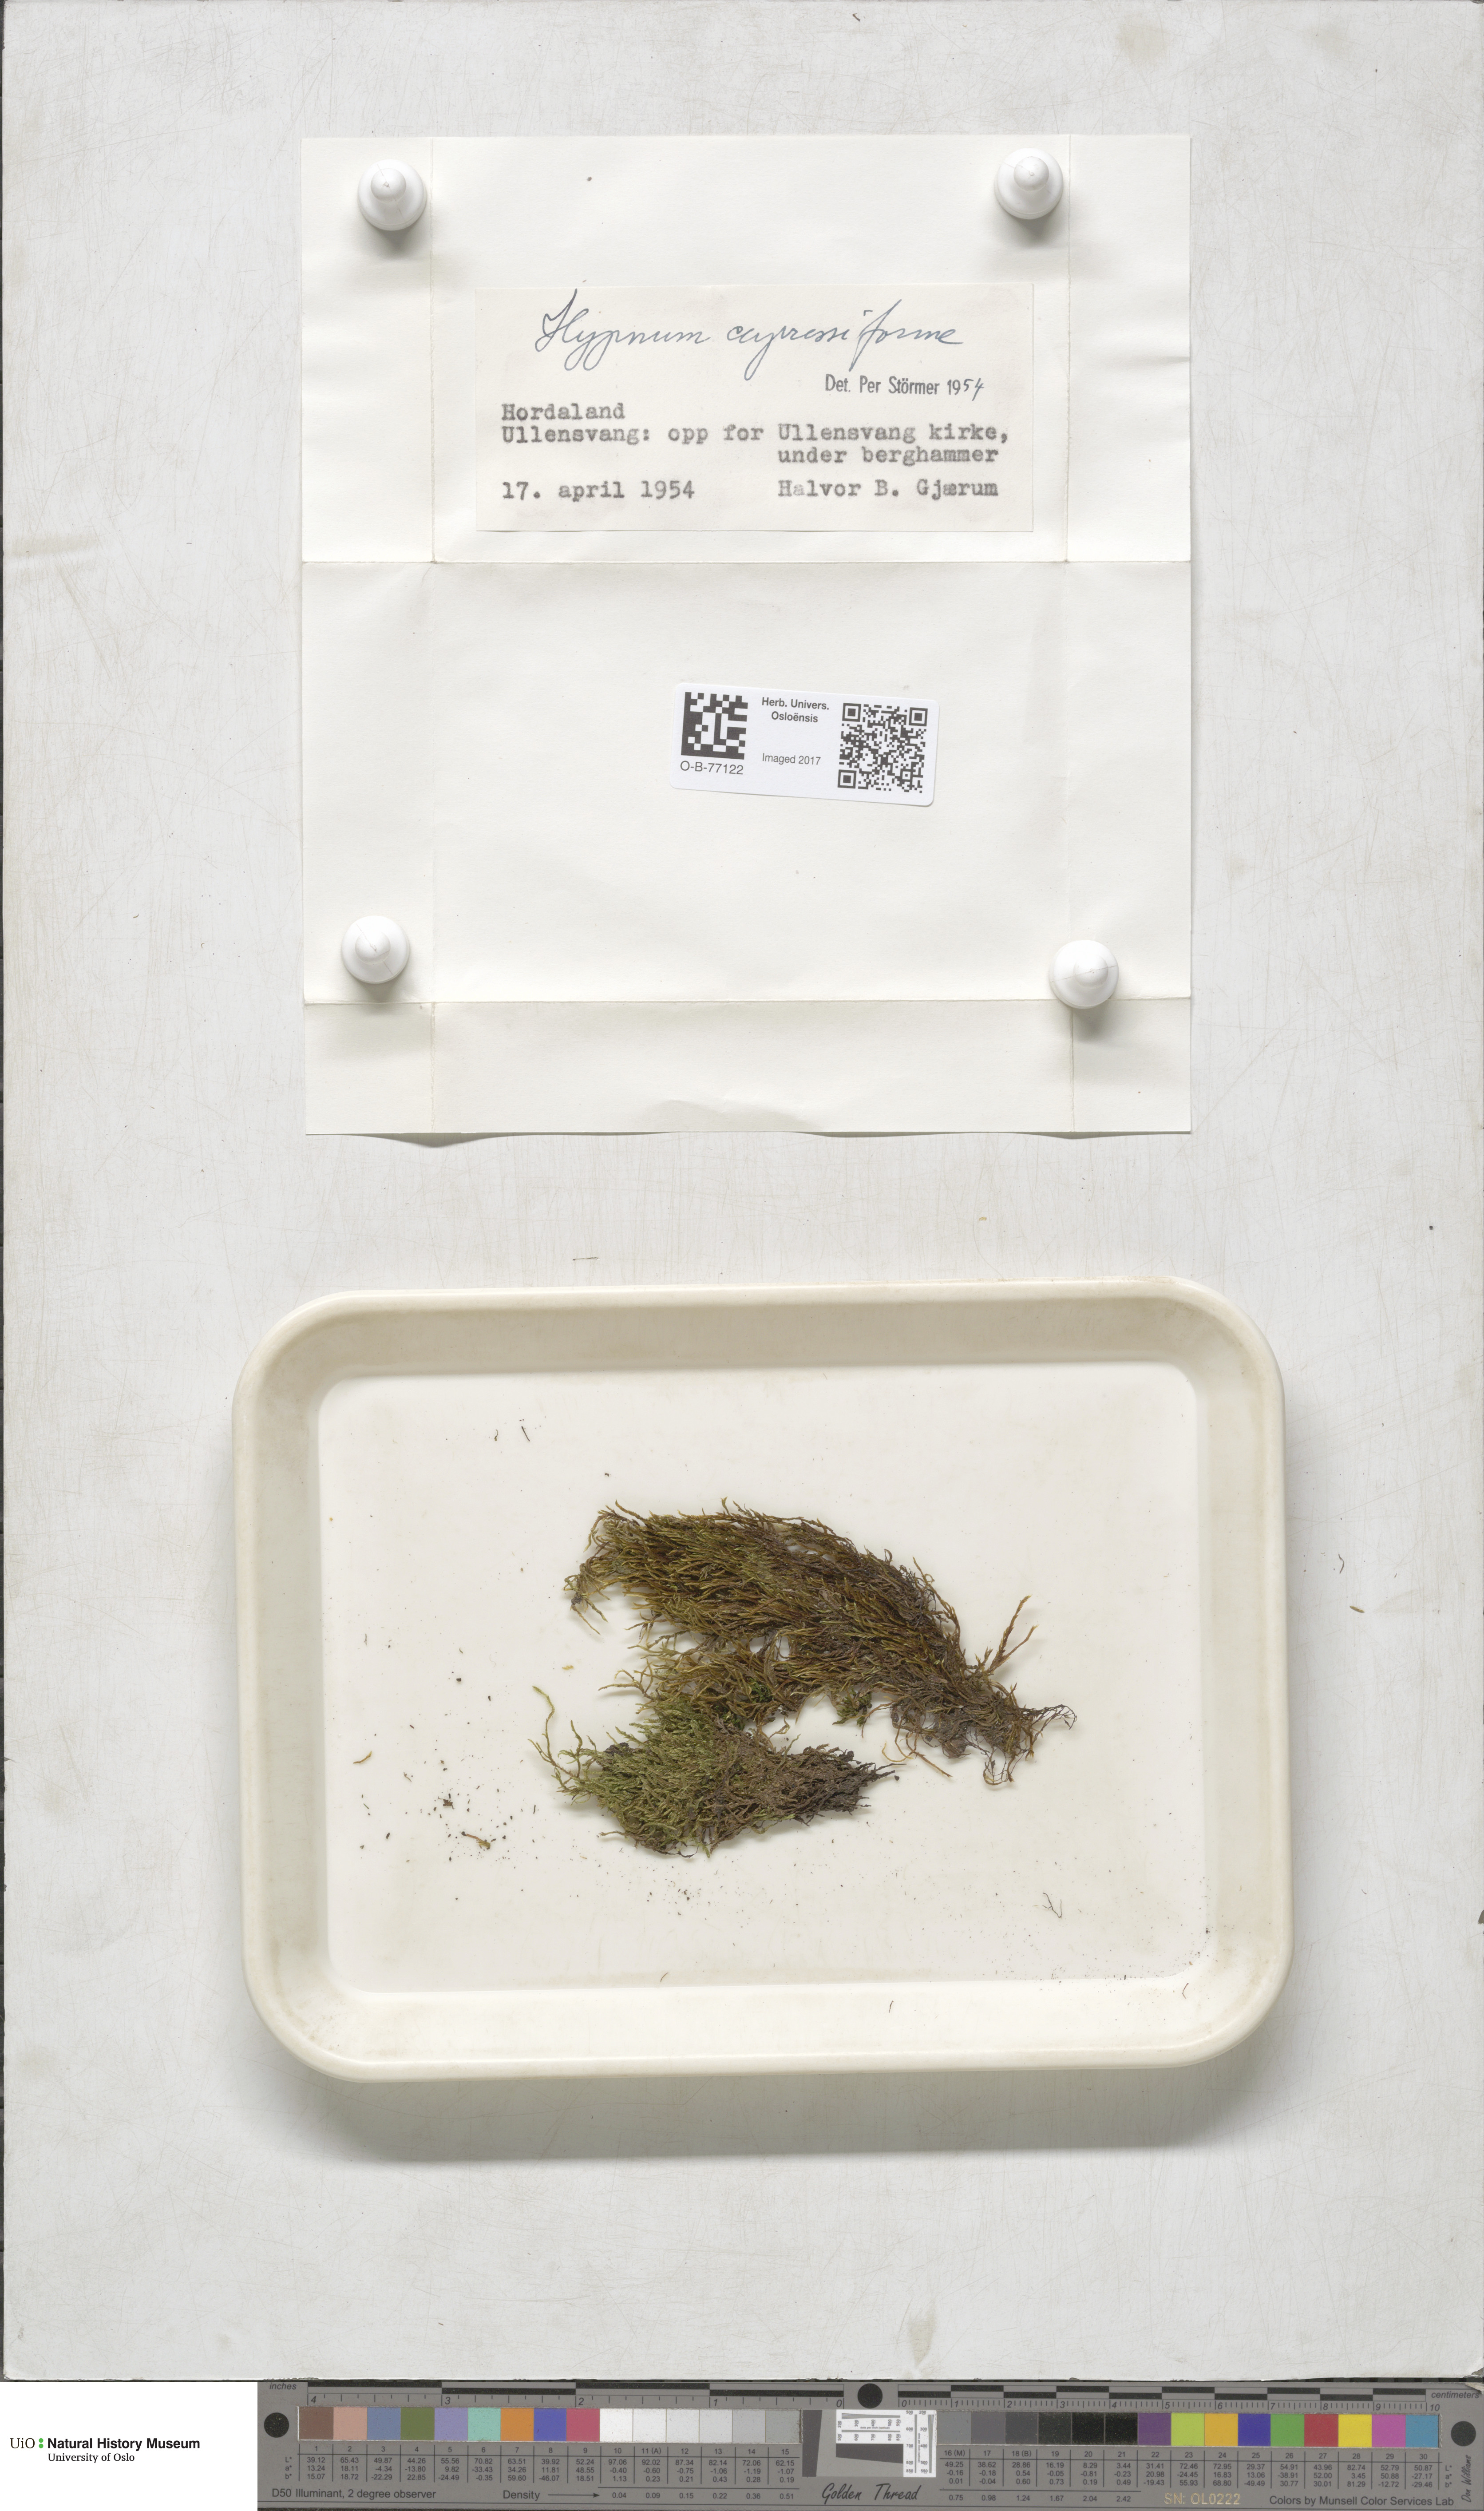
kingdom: Plantae
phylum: Bryophyta
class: Bryopsida
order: Hypnales
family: Hypnaceae
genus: Hypnum
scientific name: Hypnum cupressiforme
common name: Cypress-leaved plait-moss
